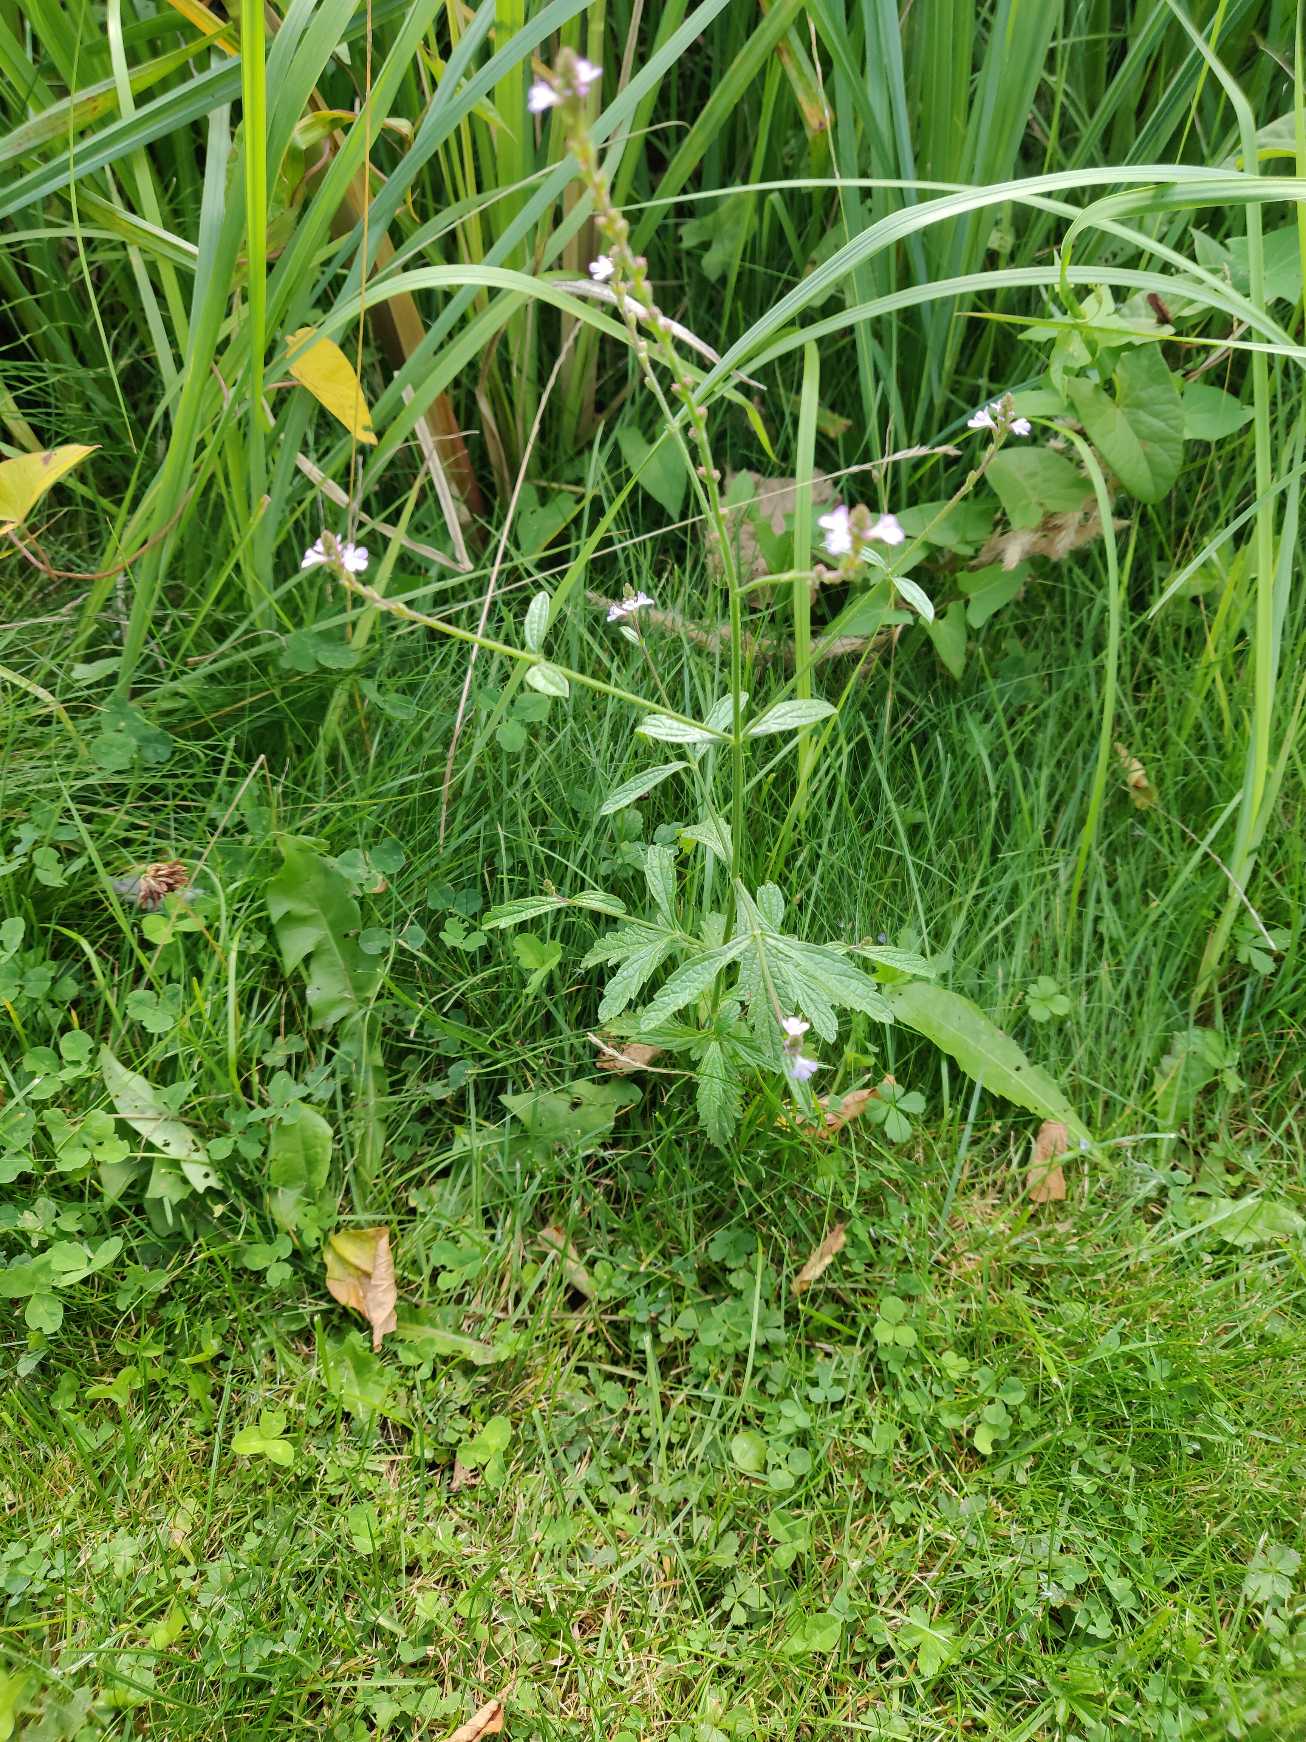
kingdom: Plantae
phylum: Tracheophyta
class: Magnoliopsida
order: Lamiales
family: Verbenaceae
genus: Verbena
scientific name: Verbena officinalis
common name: Læge-jernurt
